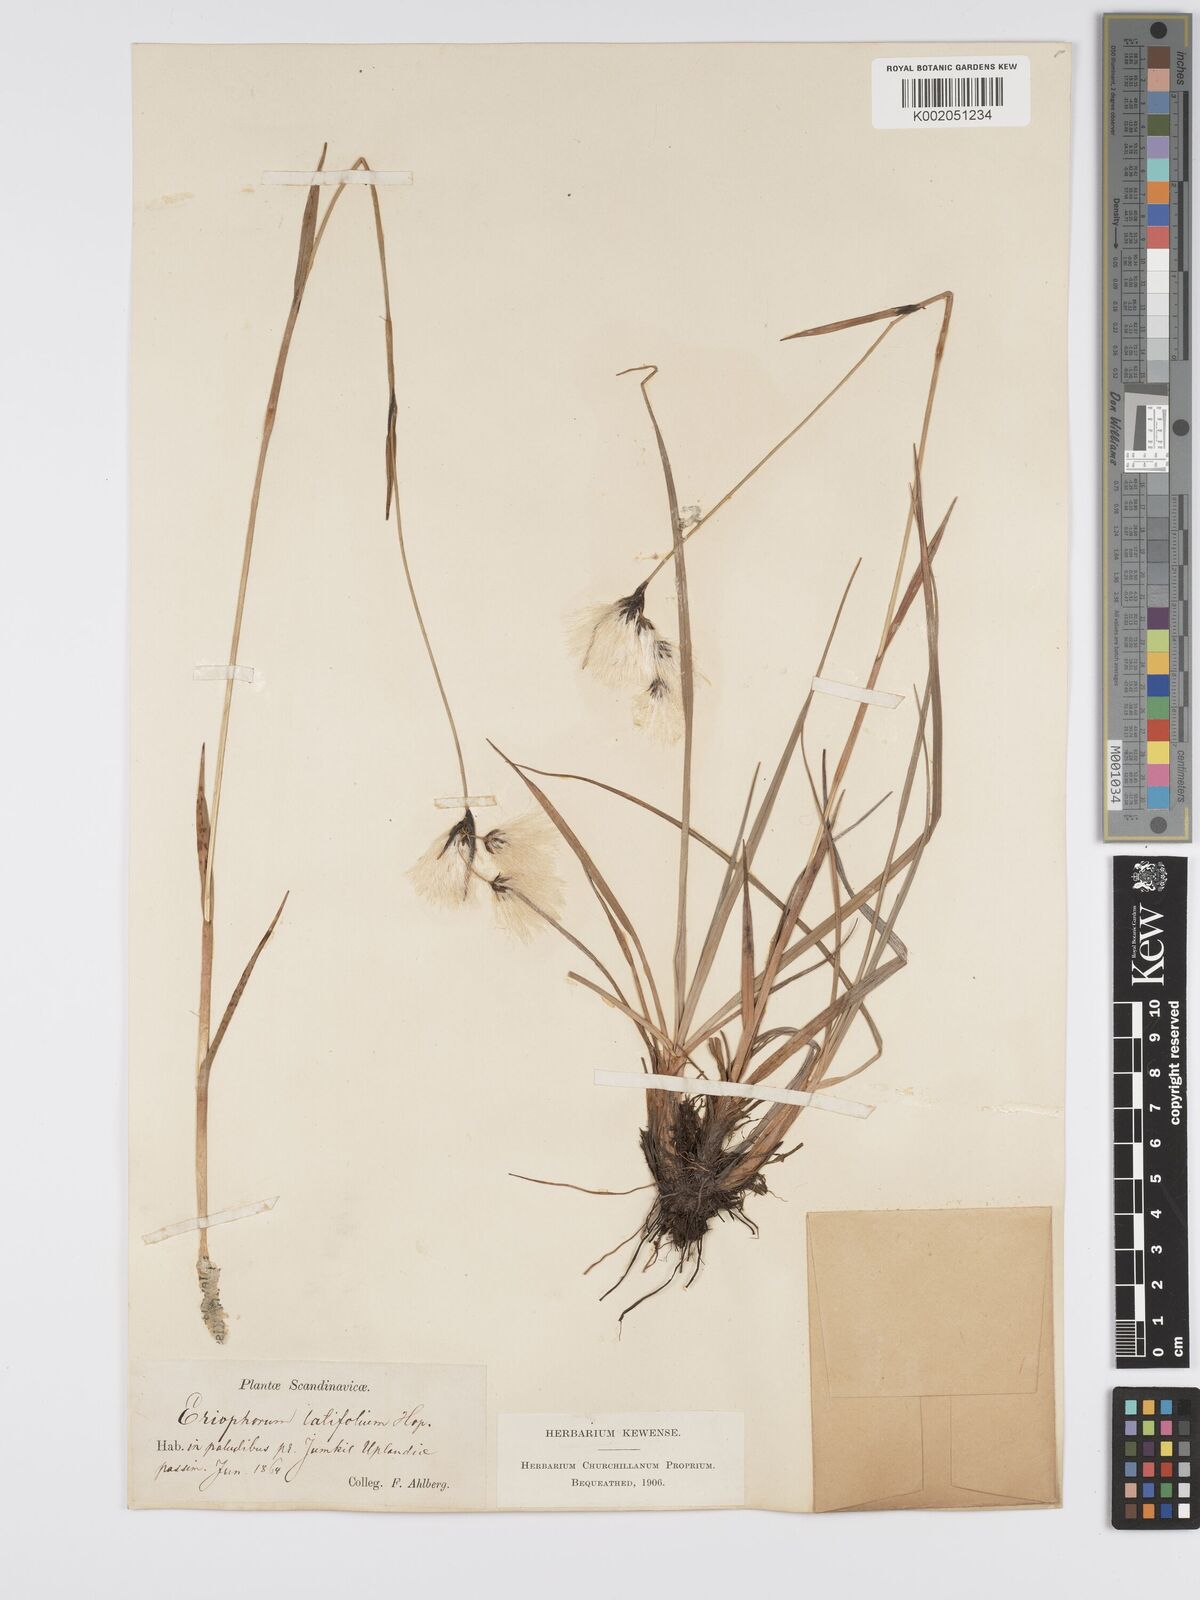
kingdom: Plantae
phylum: Tracheophyta
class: Liliopsida
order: Poales
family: Cyperaceae
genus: Eriophorum
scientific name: Eriophorum latifolium
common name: Broad-leaved cottongrass
